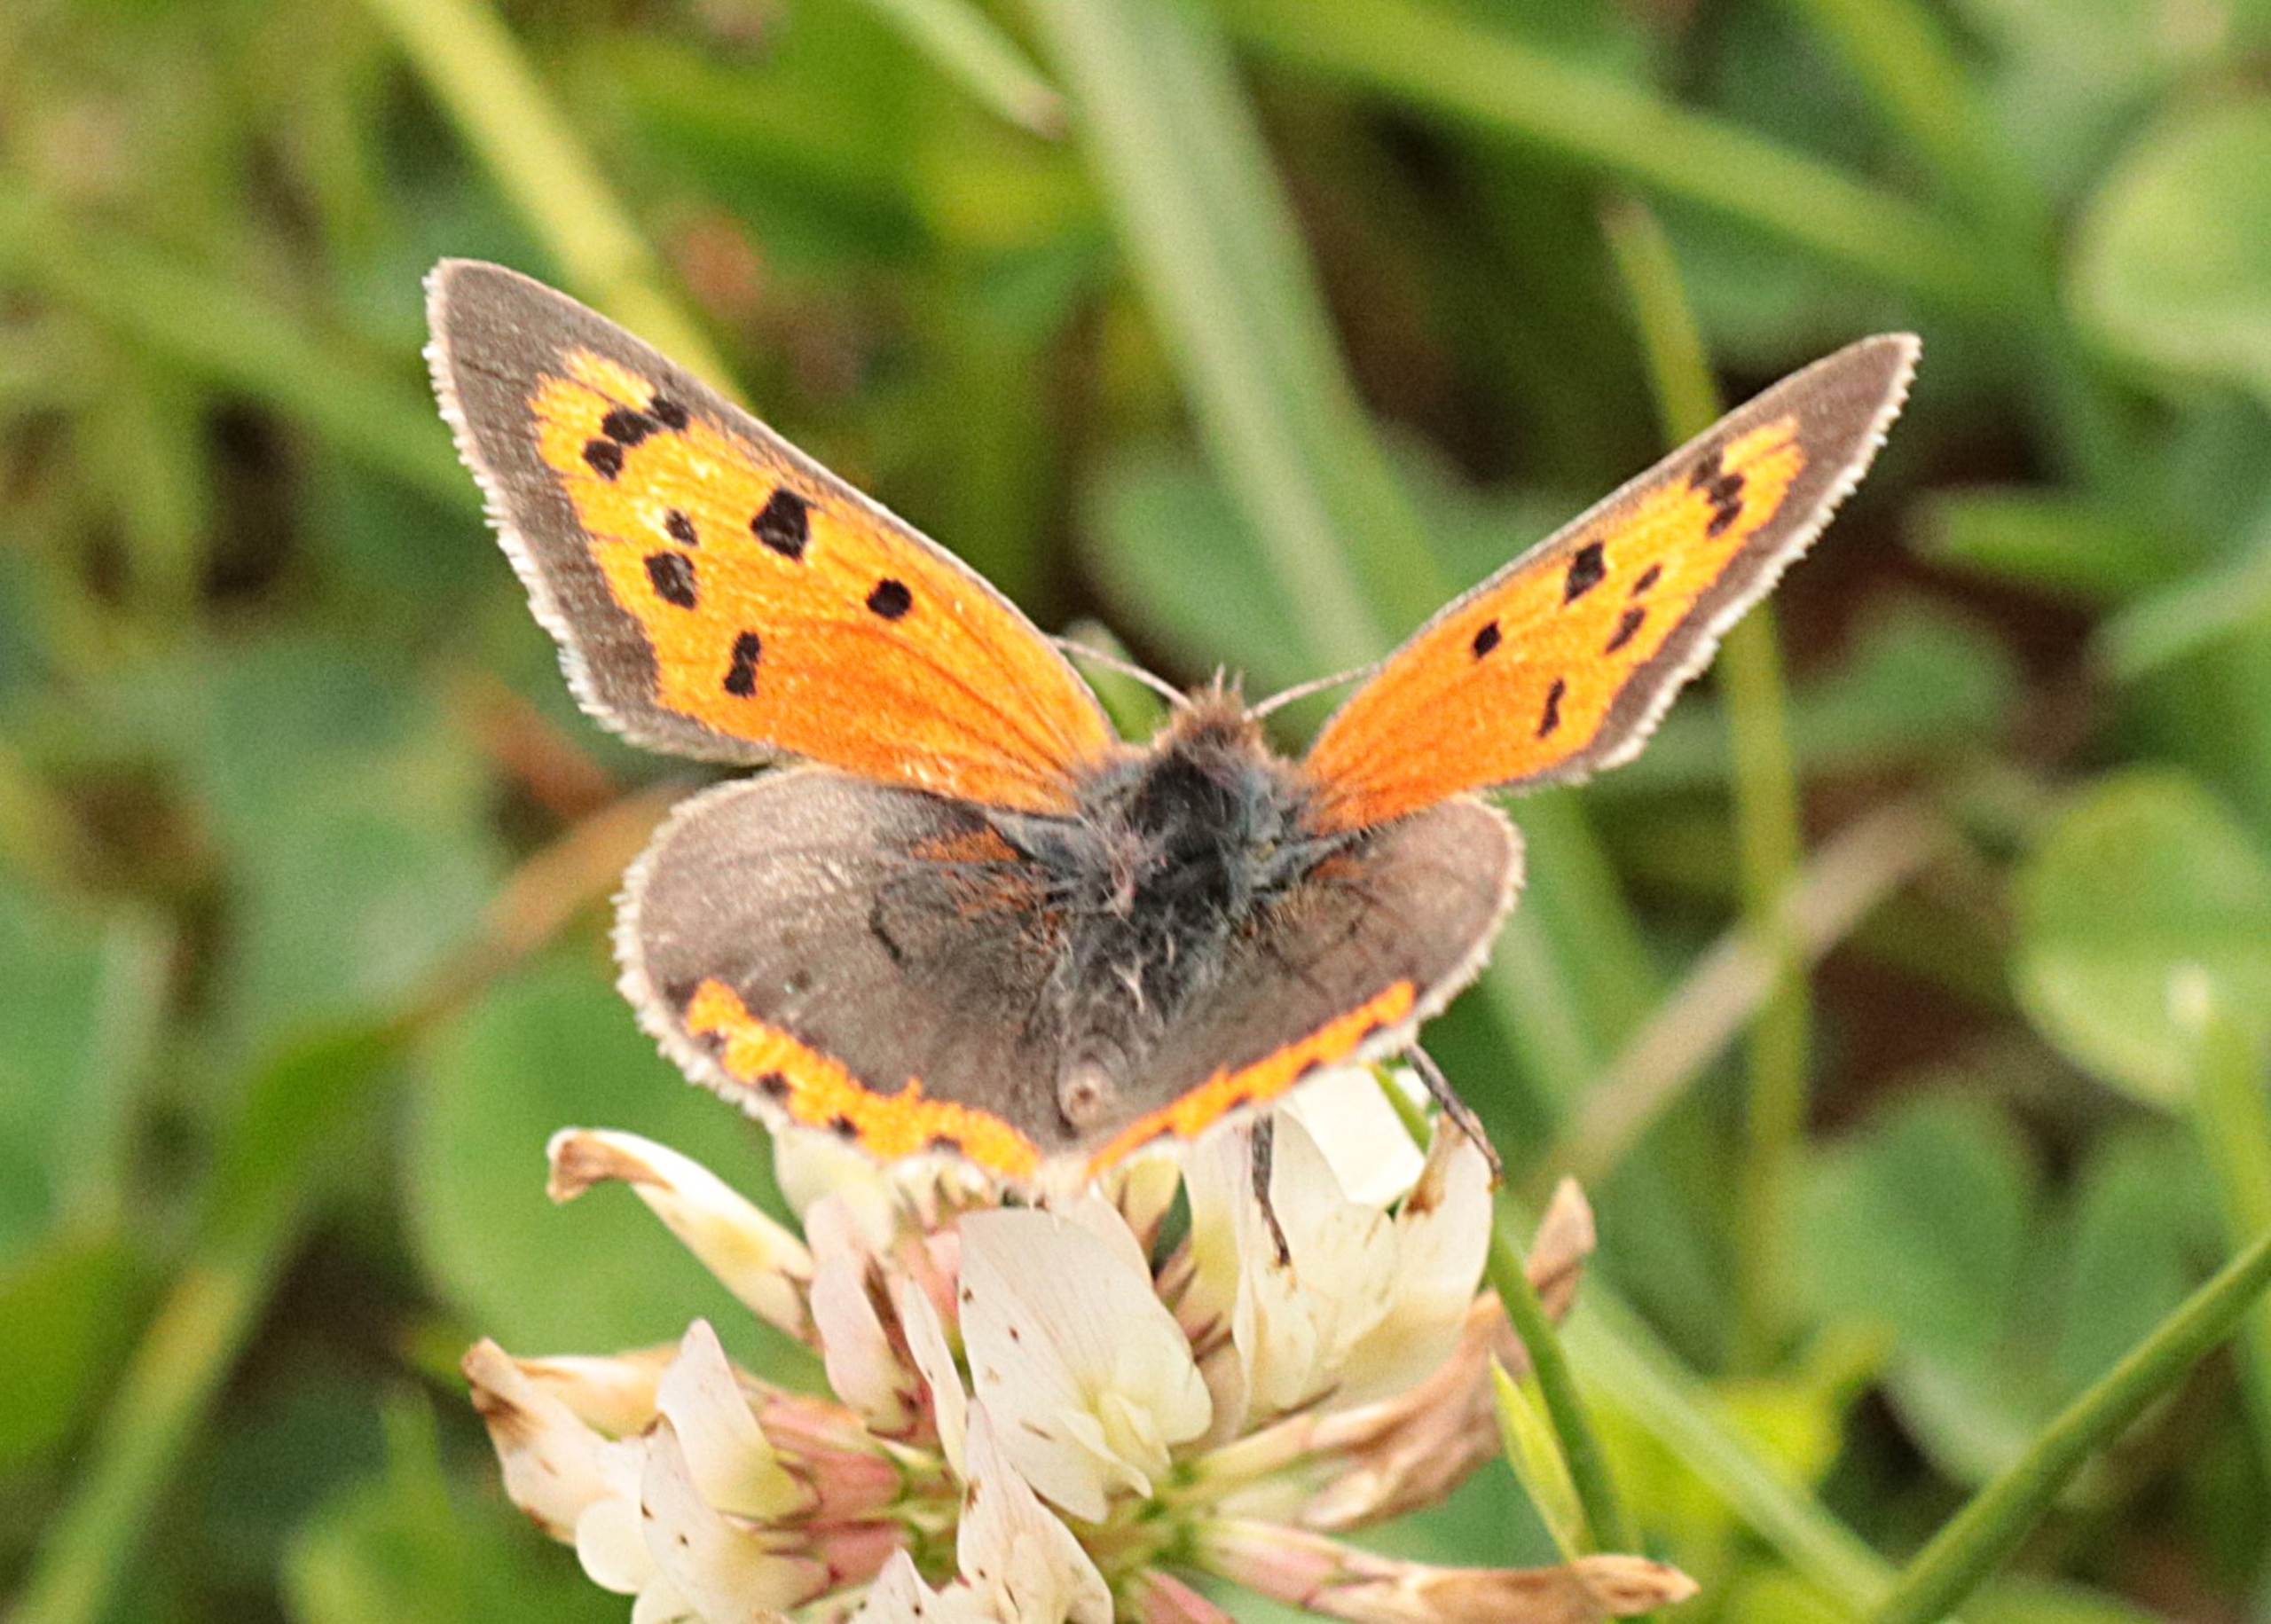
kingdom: Animalia
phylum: Arthropoda
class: Insecta
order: Lepidoptera
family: Lycaenidae
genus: Lycaena
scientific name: Lycaena phlaeas
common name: Lille ildfugl
